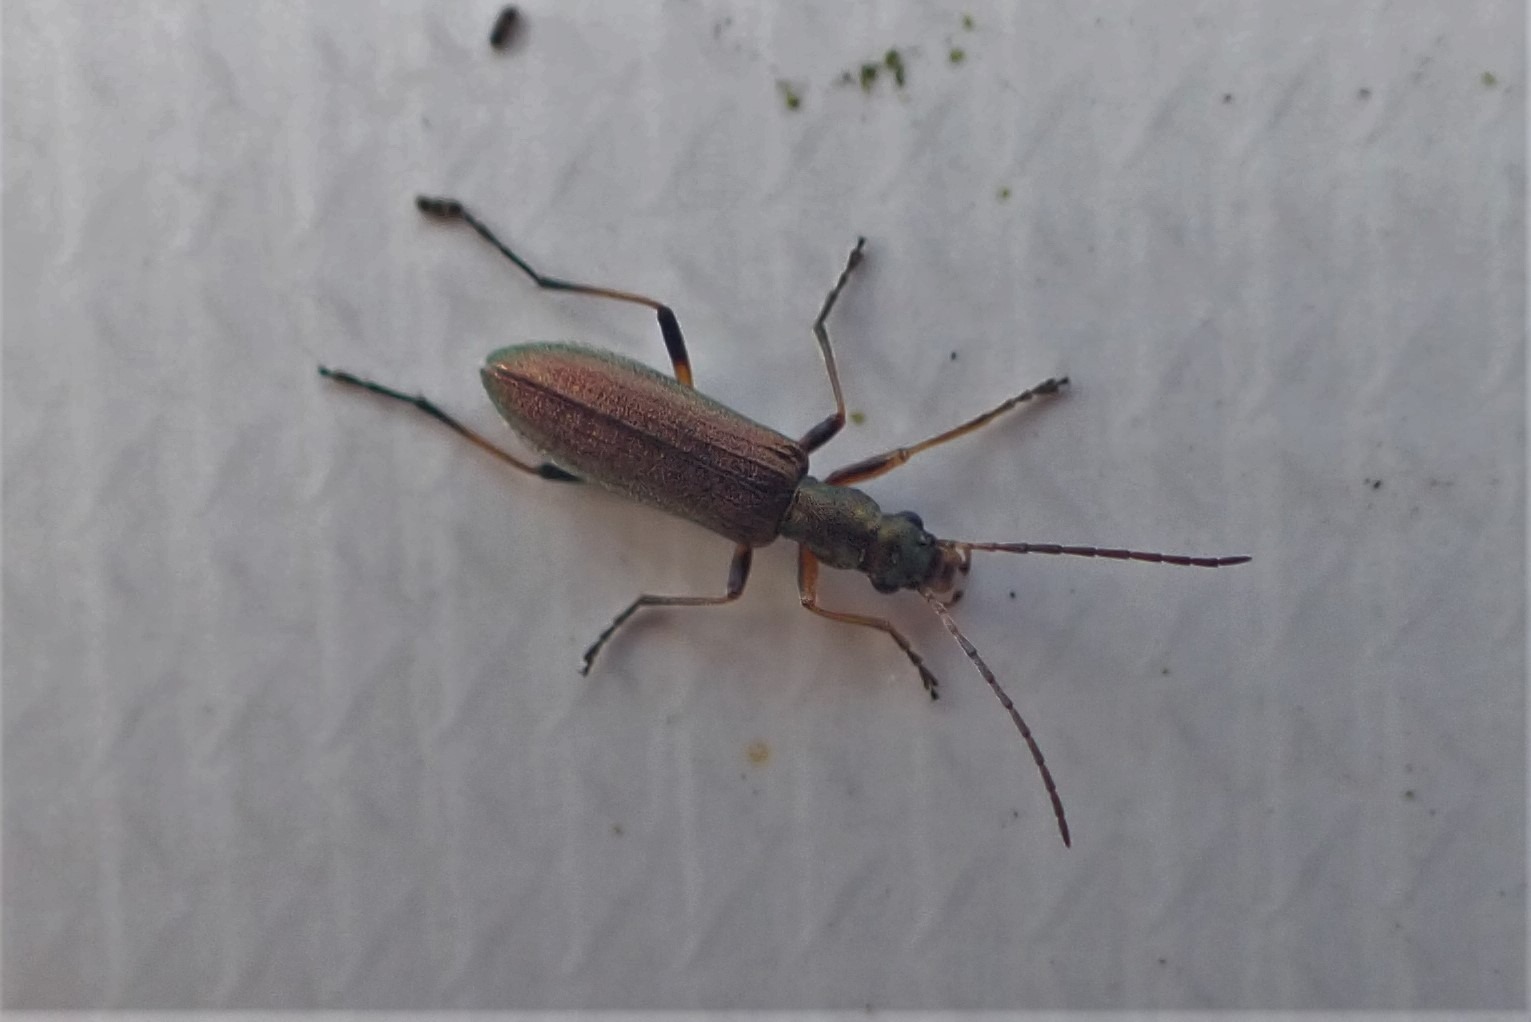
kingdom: Animalia
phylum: Arthropoda
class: Insecta
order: Coleoptera
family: Oedemeridae
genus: Chrysanthia
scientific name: Chrysanthia geniculata
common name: Grøn solbille
